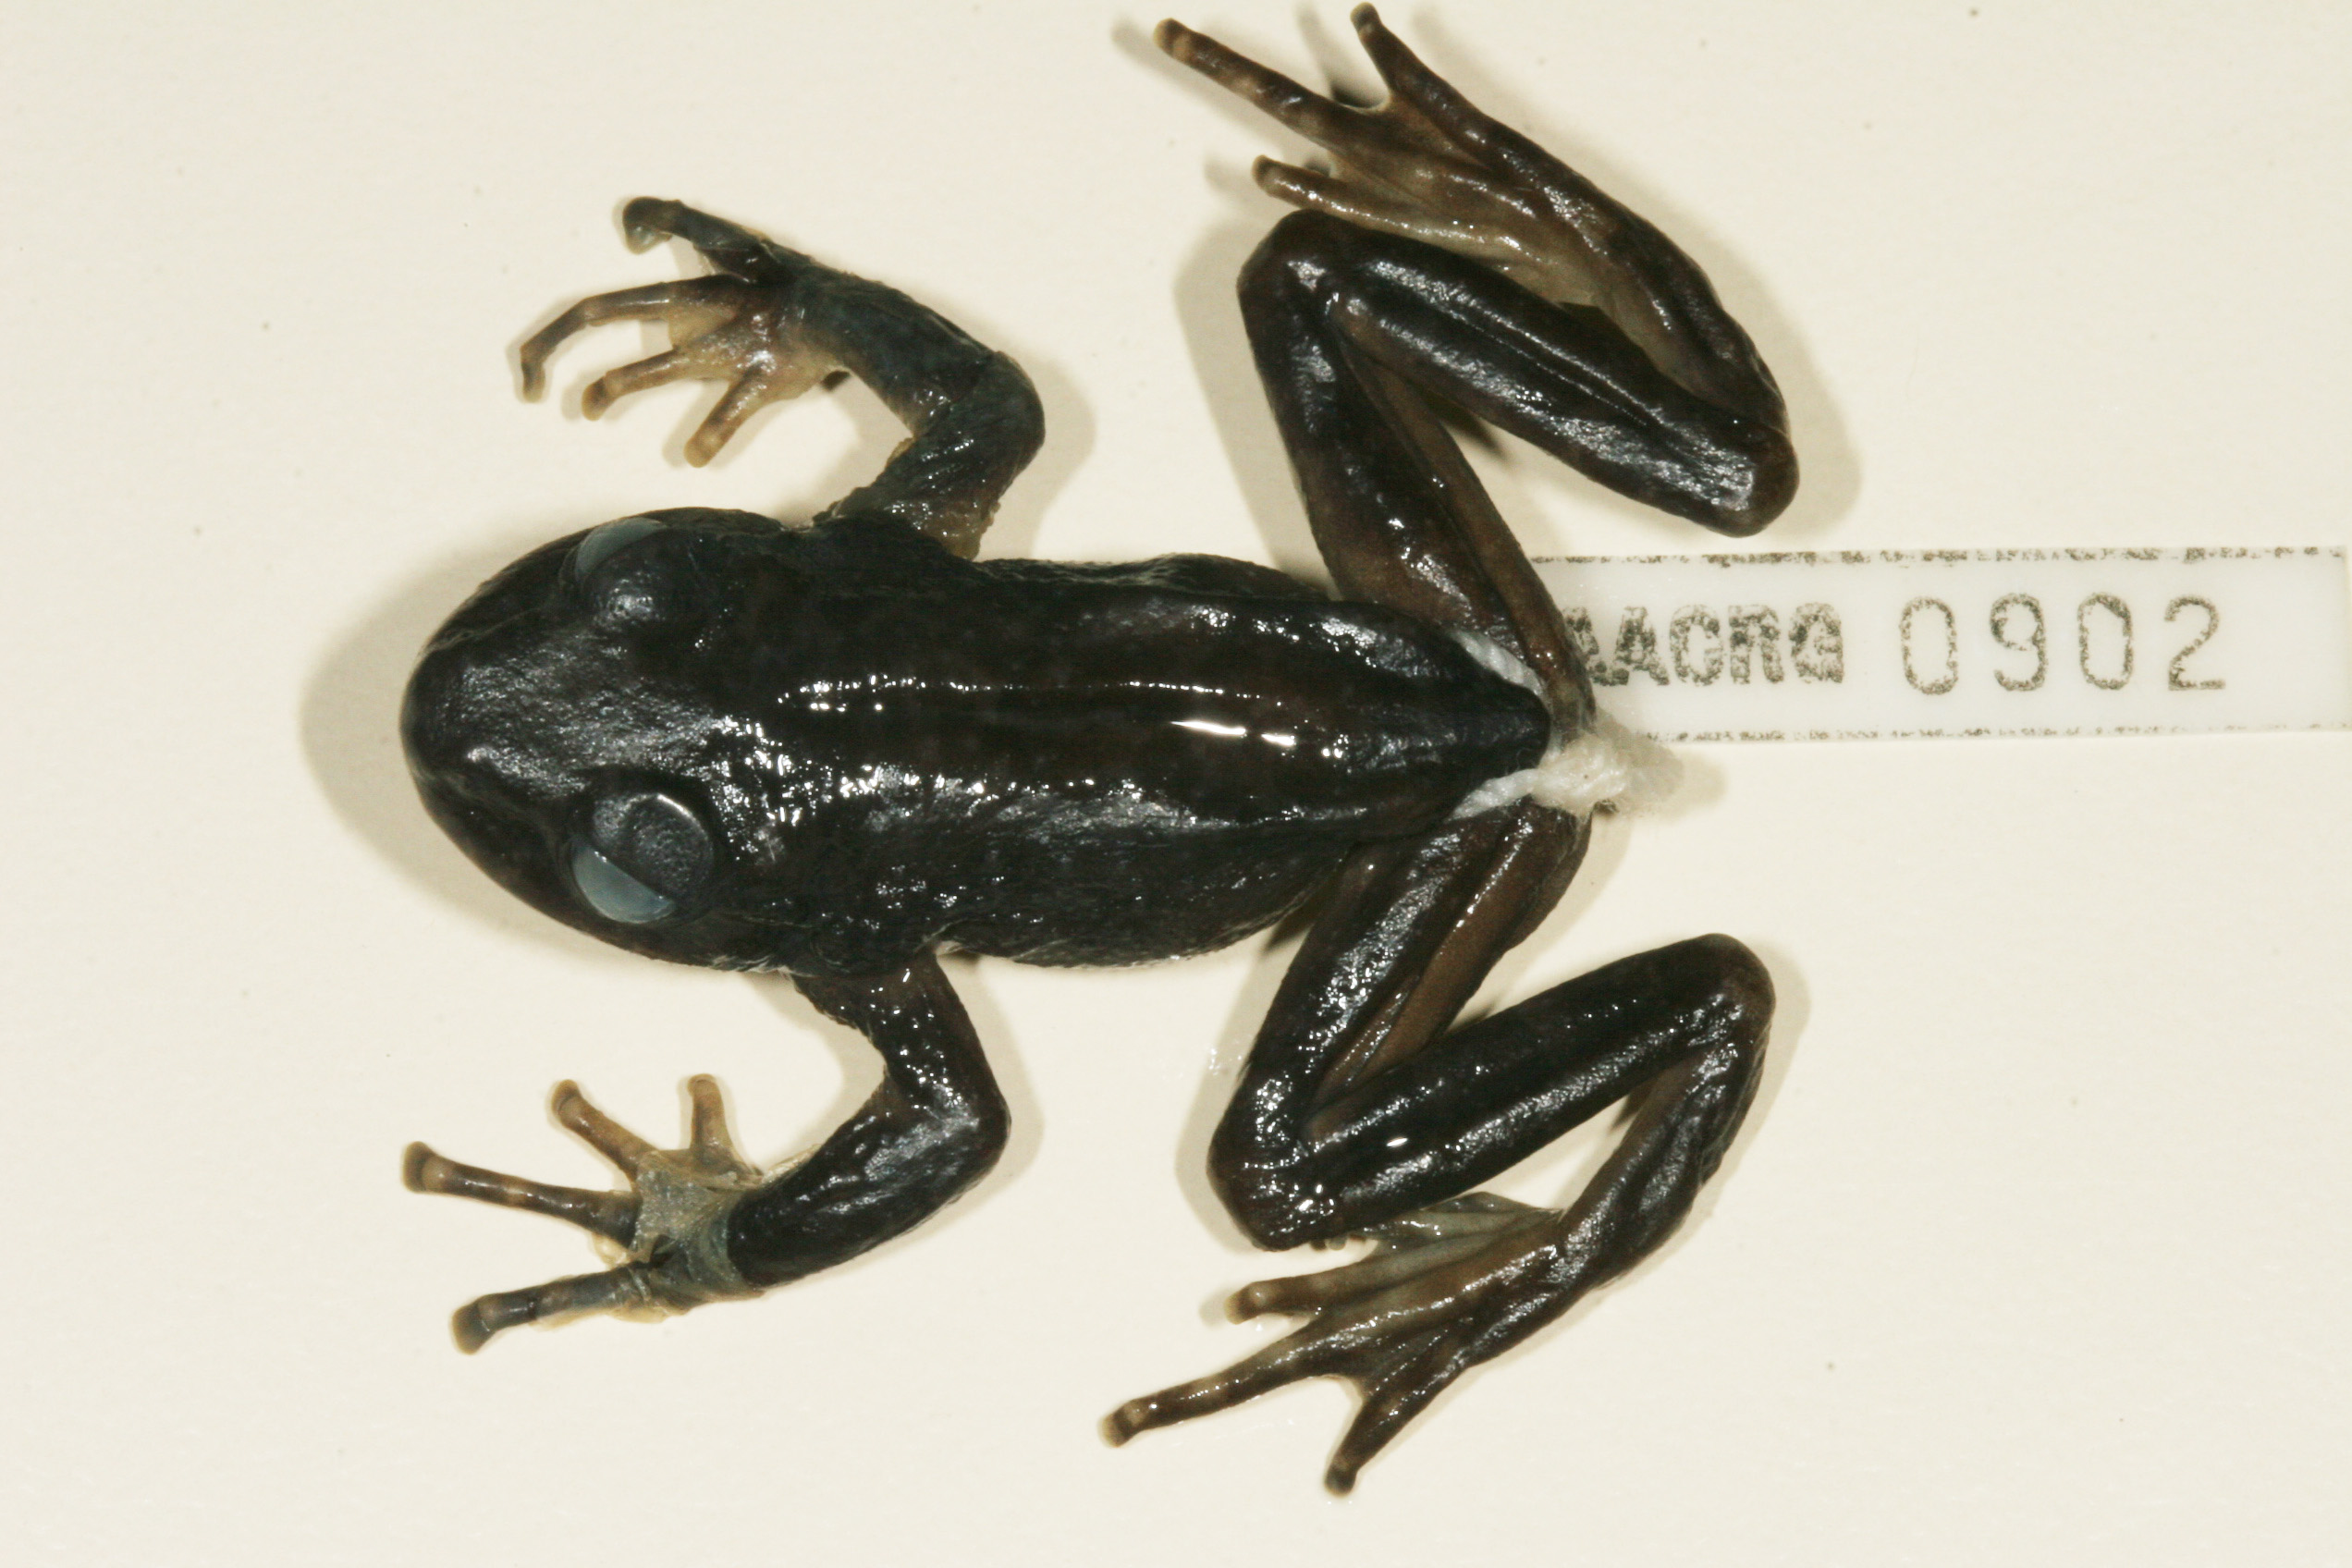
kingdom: Animalia
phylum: Chordata
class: Amphibia
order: Anura
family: Heleophrynidae
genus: Hadromophryne
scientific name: Hadromophryne natalensis
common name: Natal ghost frog
